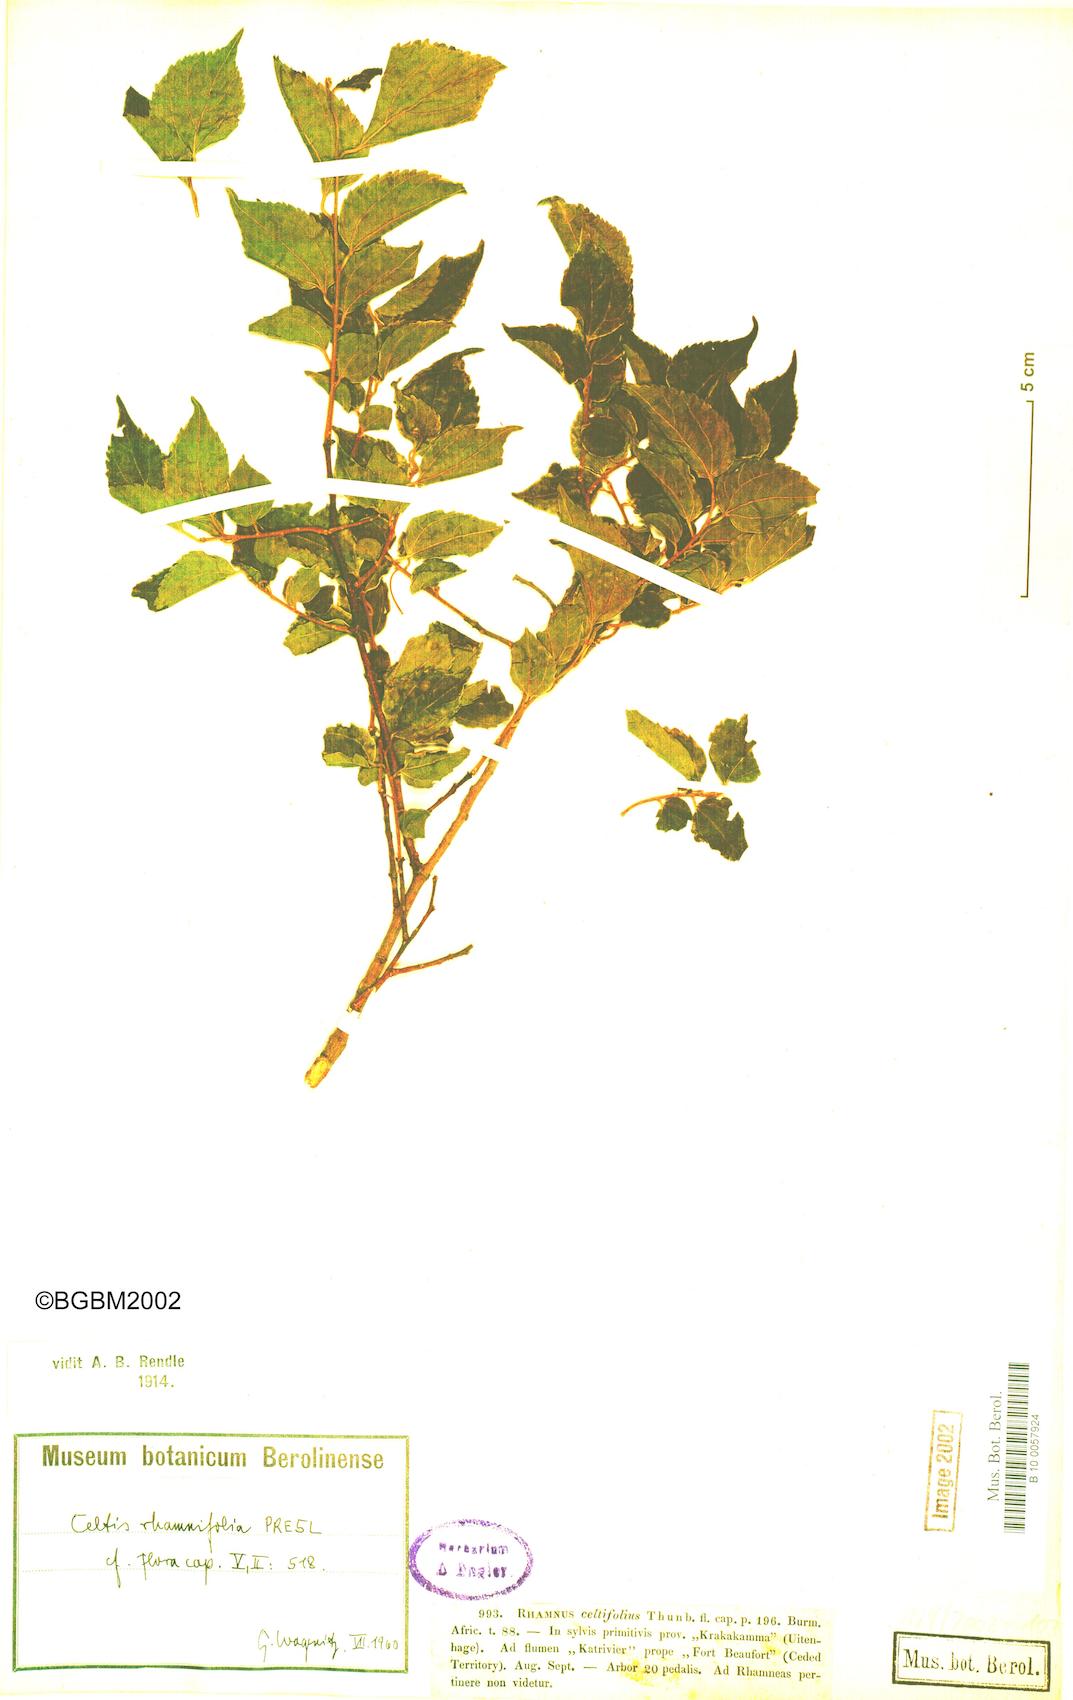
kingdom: Plantae
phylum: Tracheophyta
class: Magnoliopsida
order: Rosales
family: Rhamnaceae
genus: Rhamnus
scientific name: Rhamnus prinoides
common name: Dogwood
